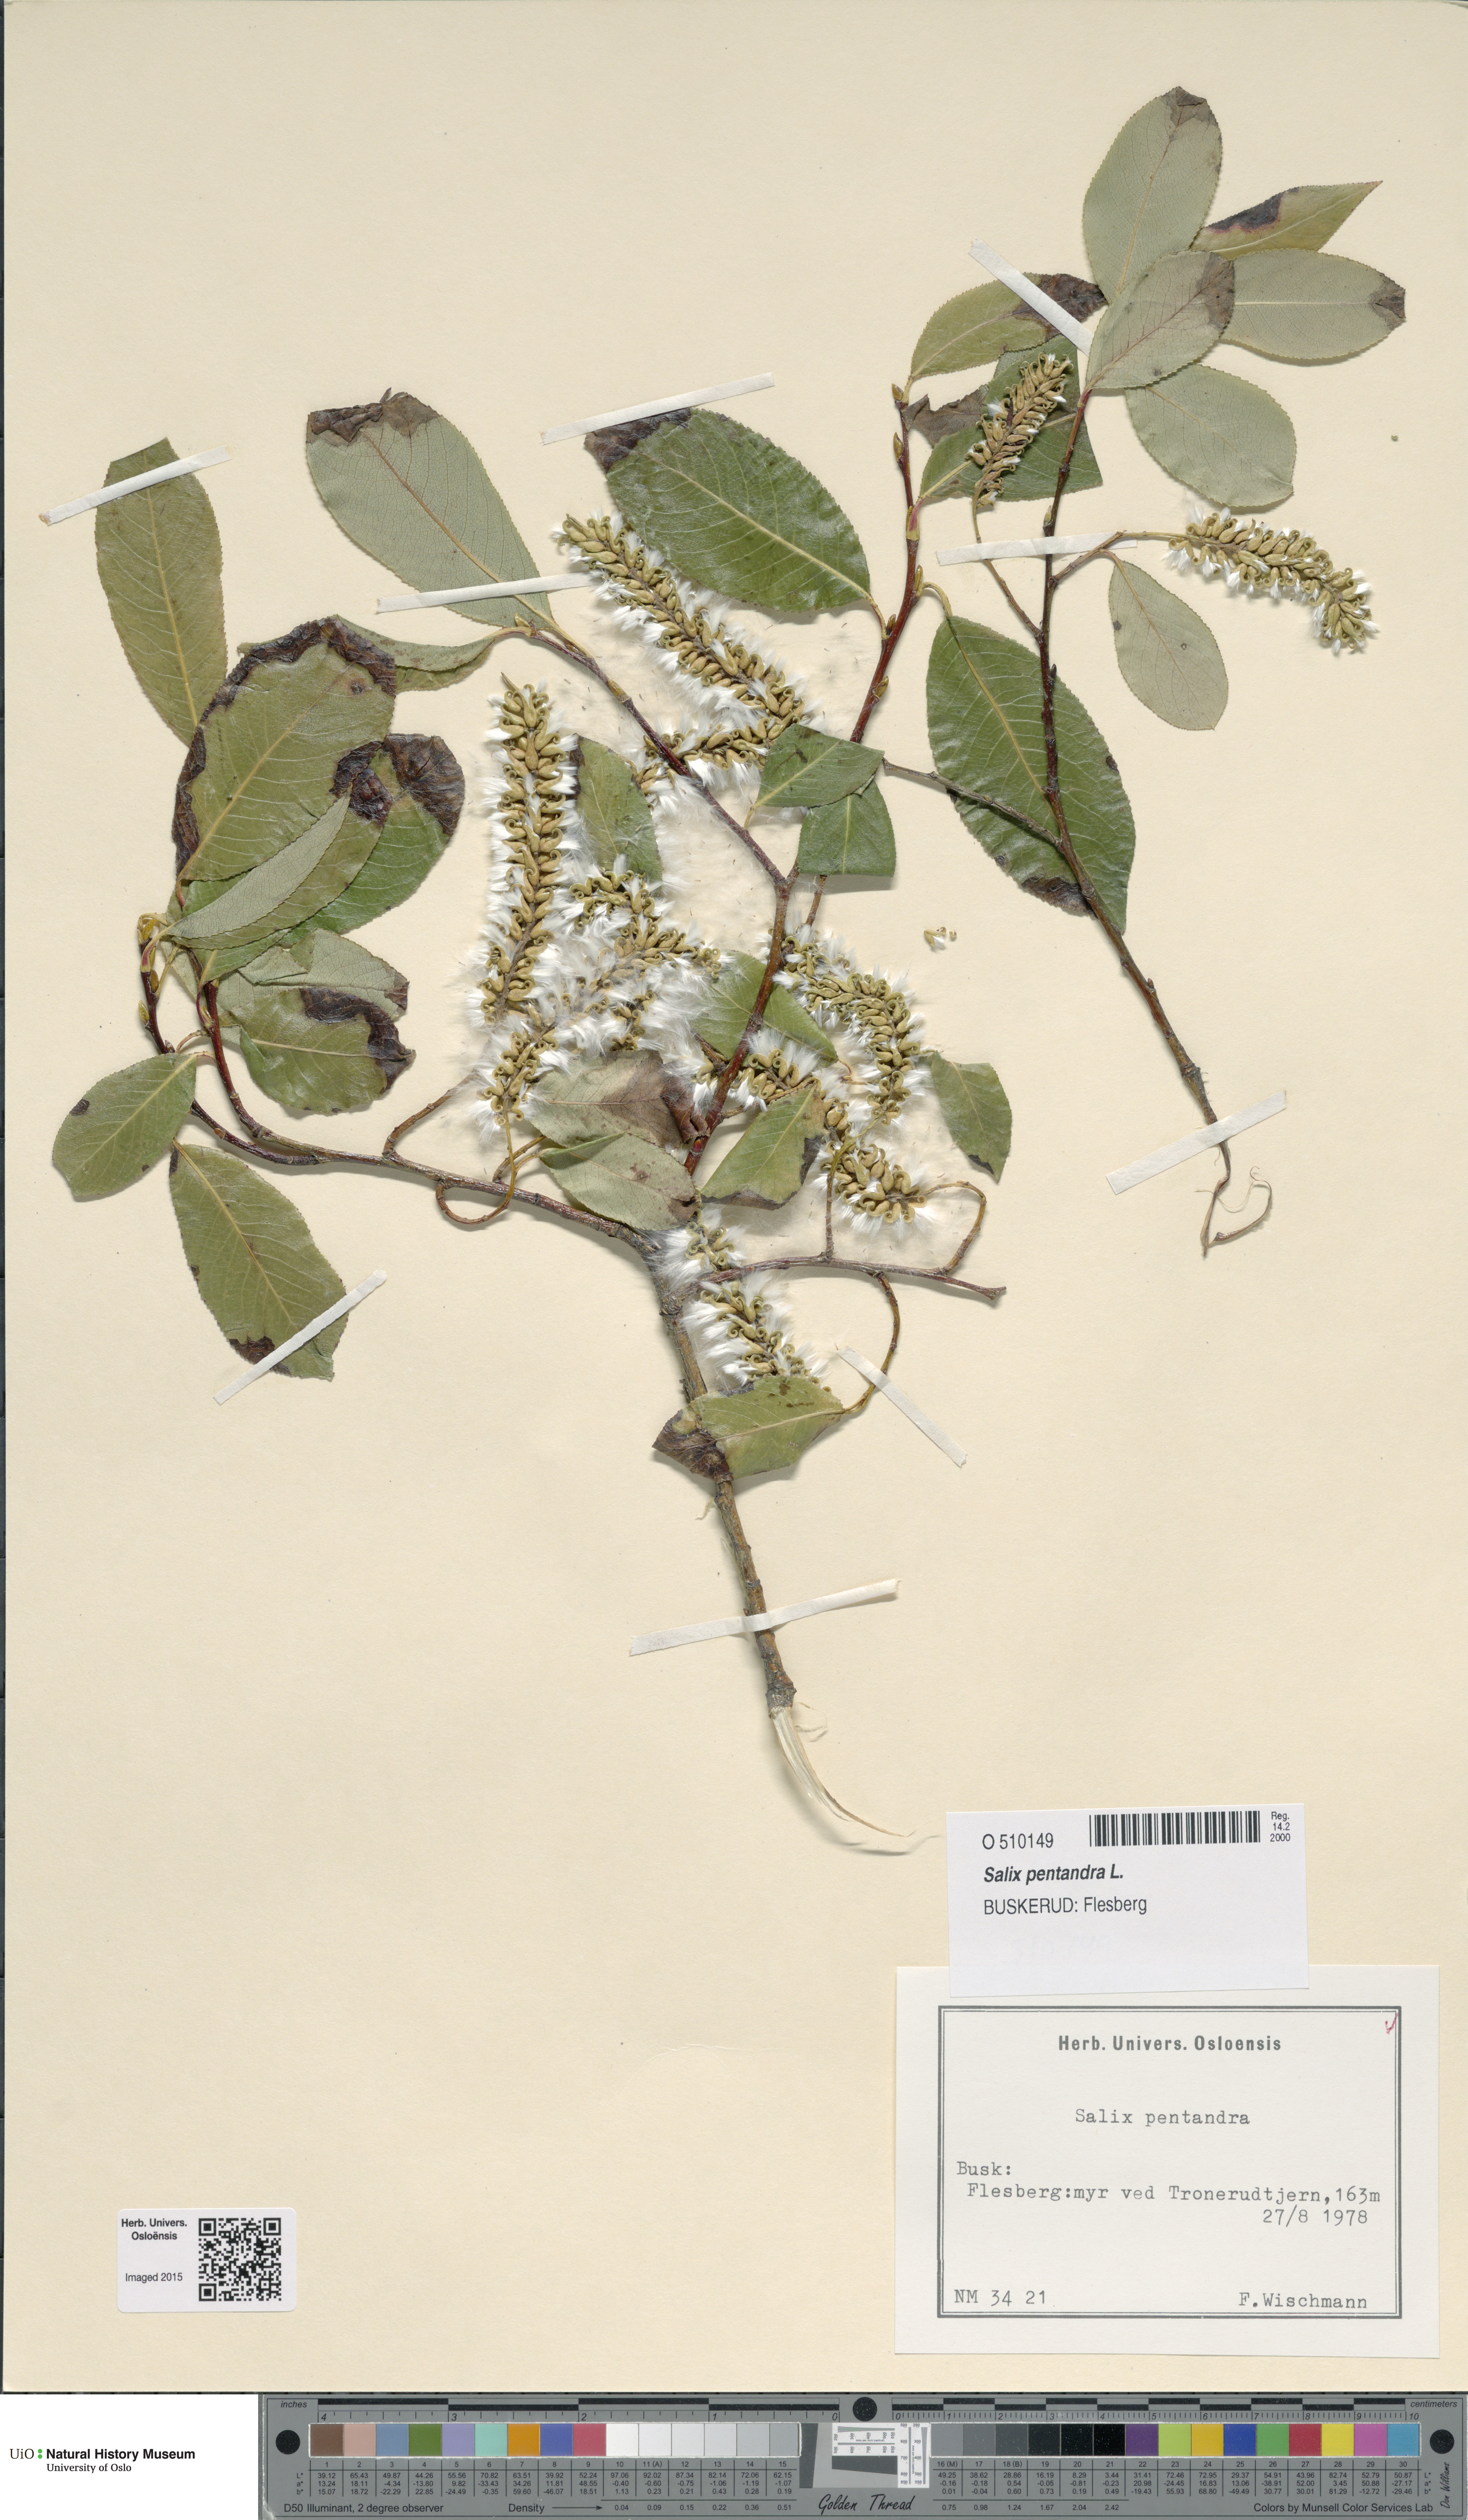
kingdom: Plantae
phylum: Tracheophyta
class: Magnoliopsida
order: Malpighiales
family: Salicaceae
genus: Salix
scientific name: Salix pentandra
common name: Bay willow
